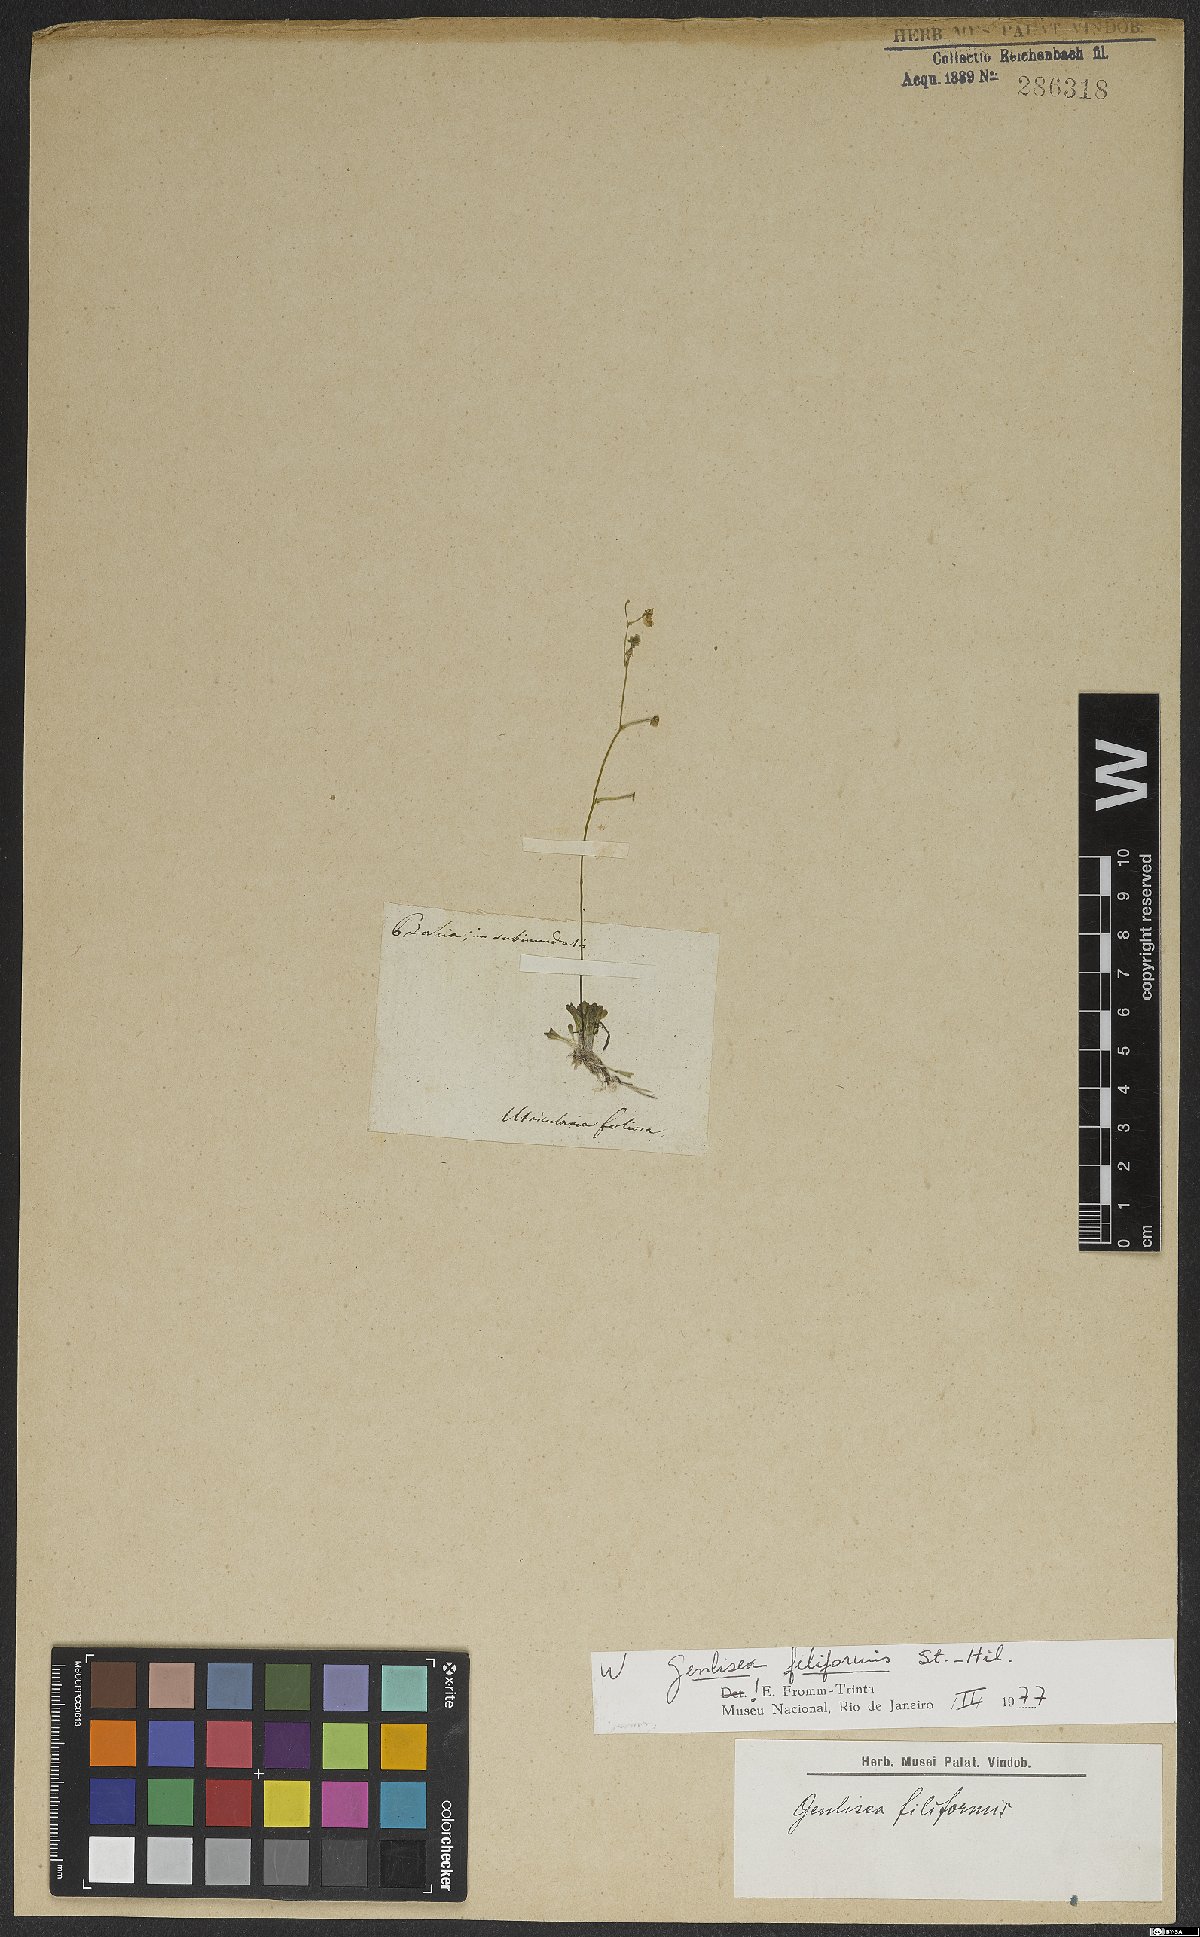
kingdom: Plantae
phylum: Tracheophyta
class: Magnoliopsida
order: Lamiales
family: Lentibulariaceae
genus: Genlisea
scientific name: Genlisea filiformis
